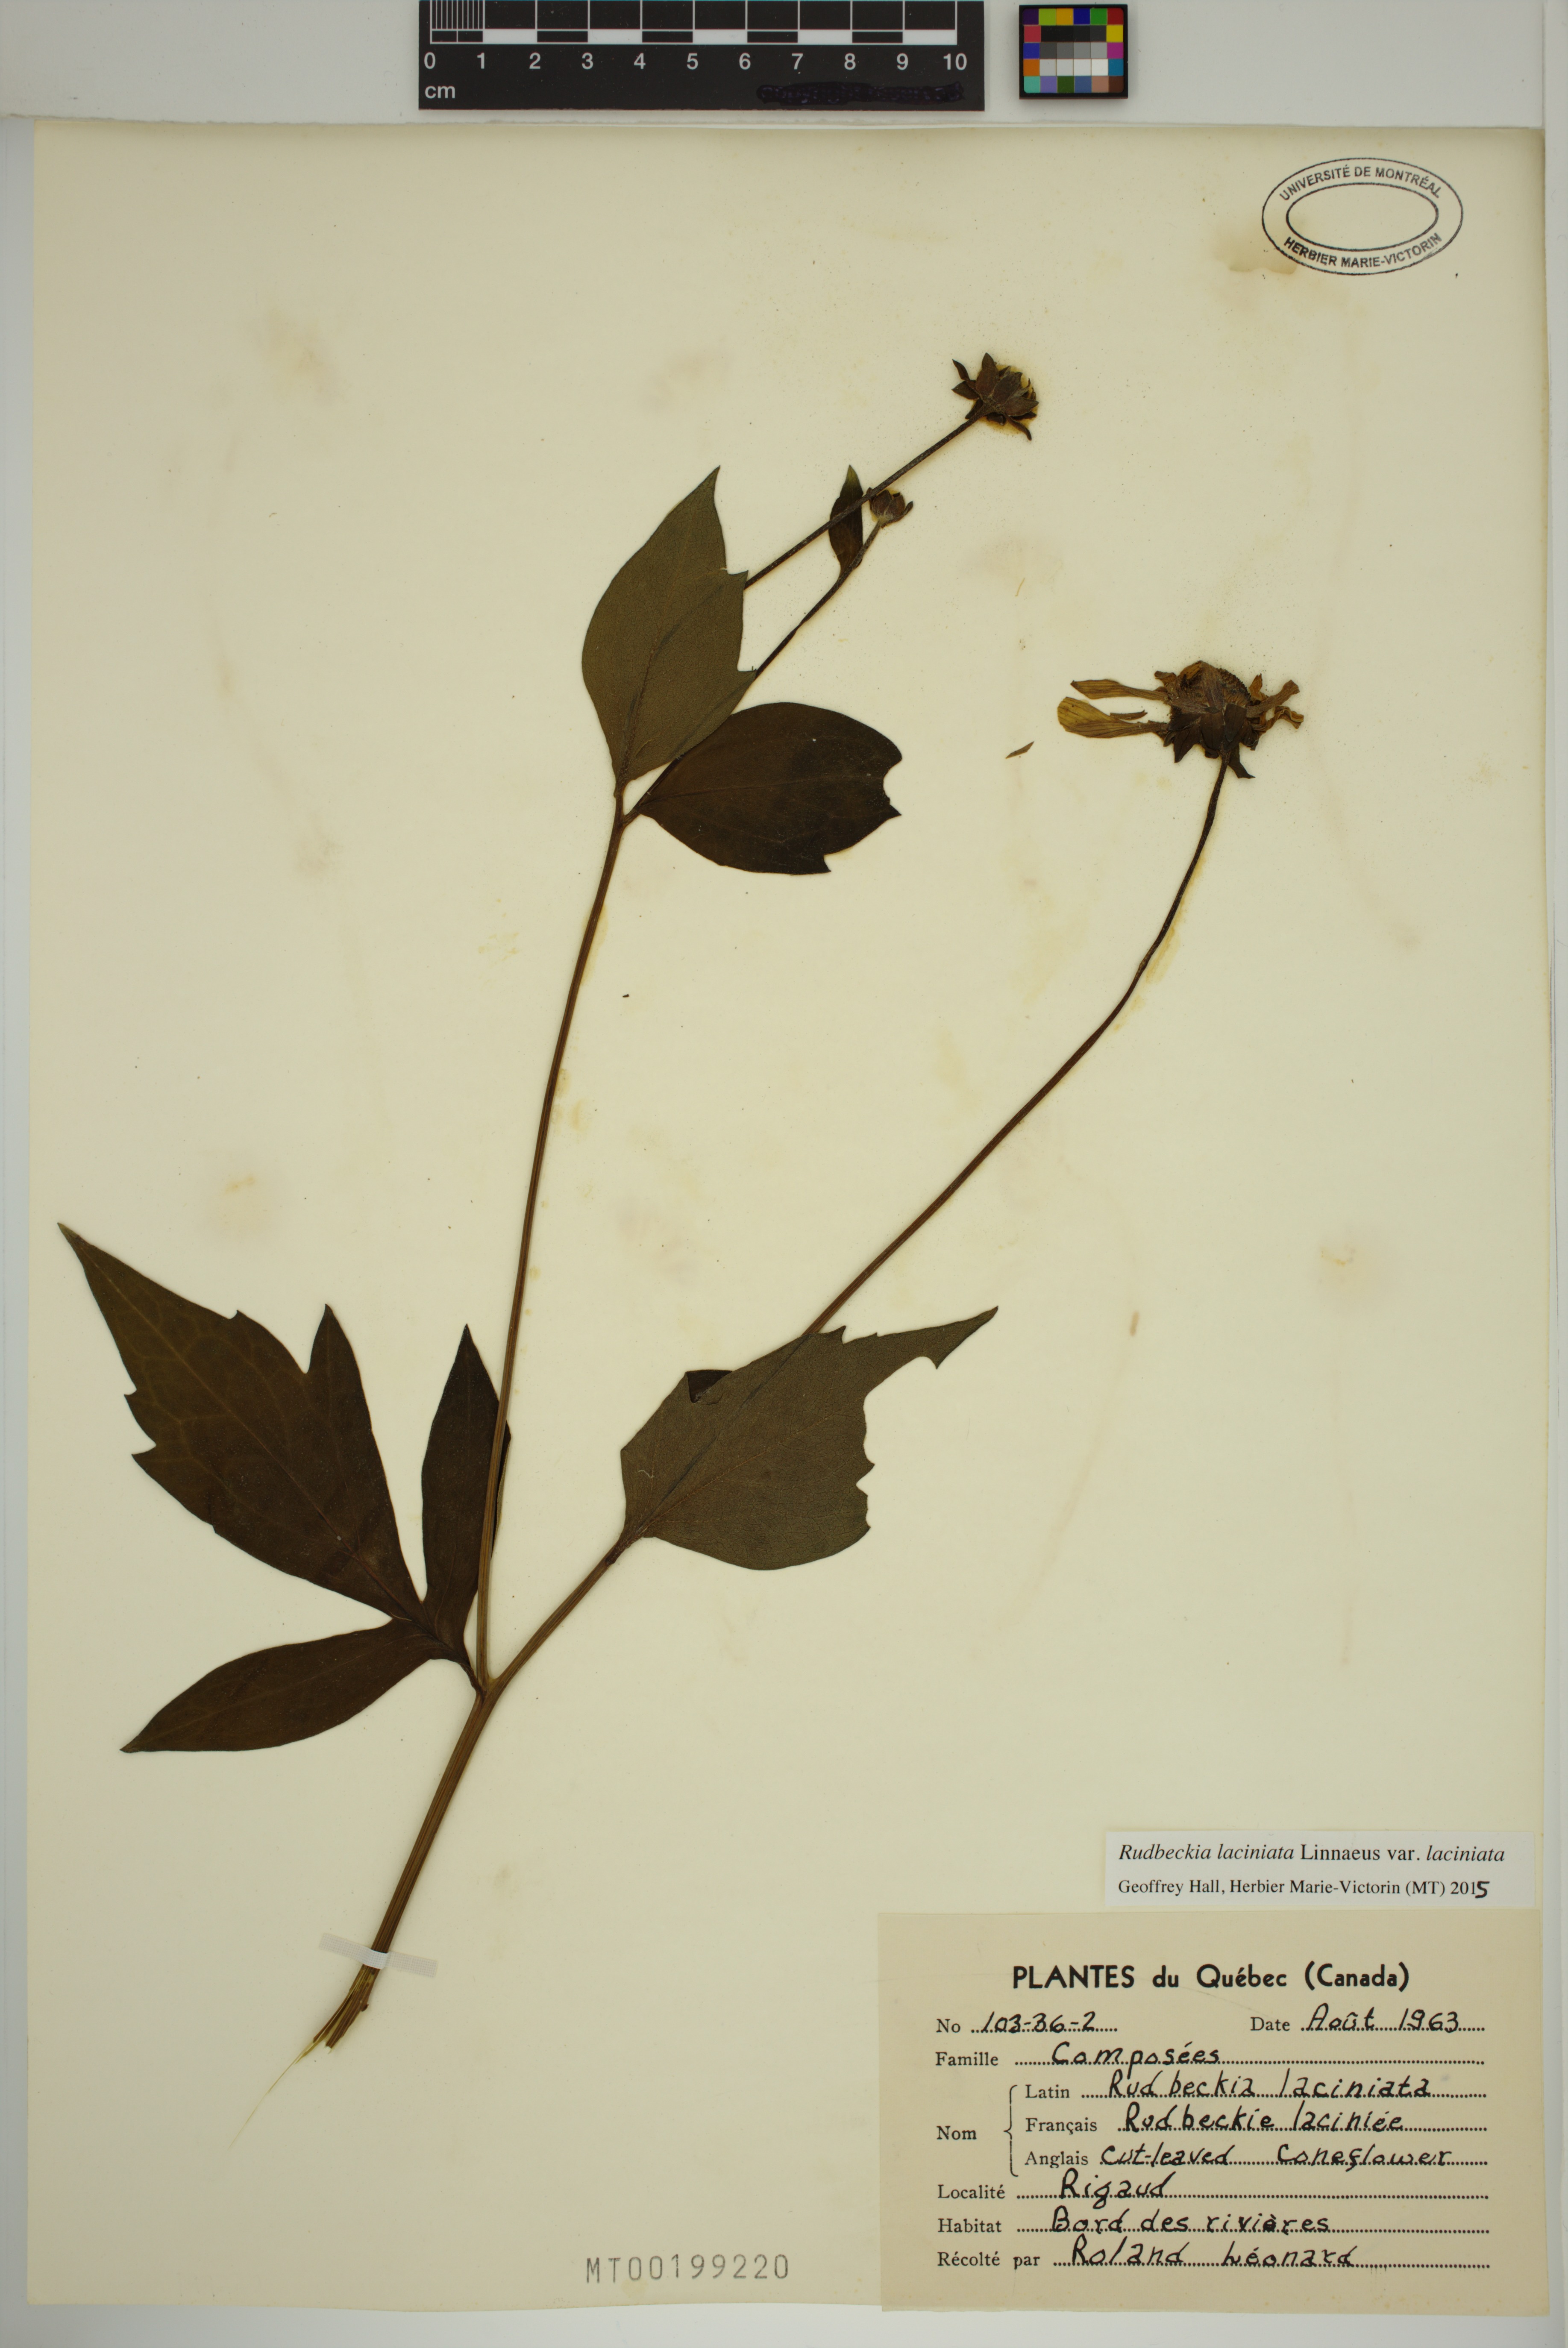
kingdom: Plantae
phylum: Tracheophyta
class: Magnoliopsida
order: Asterales
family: Asteraceae
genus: Rudbeckia
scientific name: Rudbeckia laciniata
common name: Coneflower
